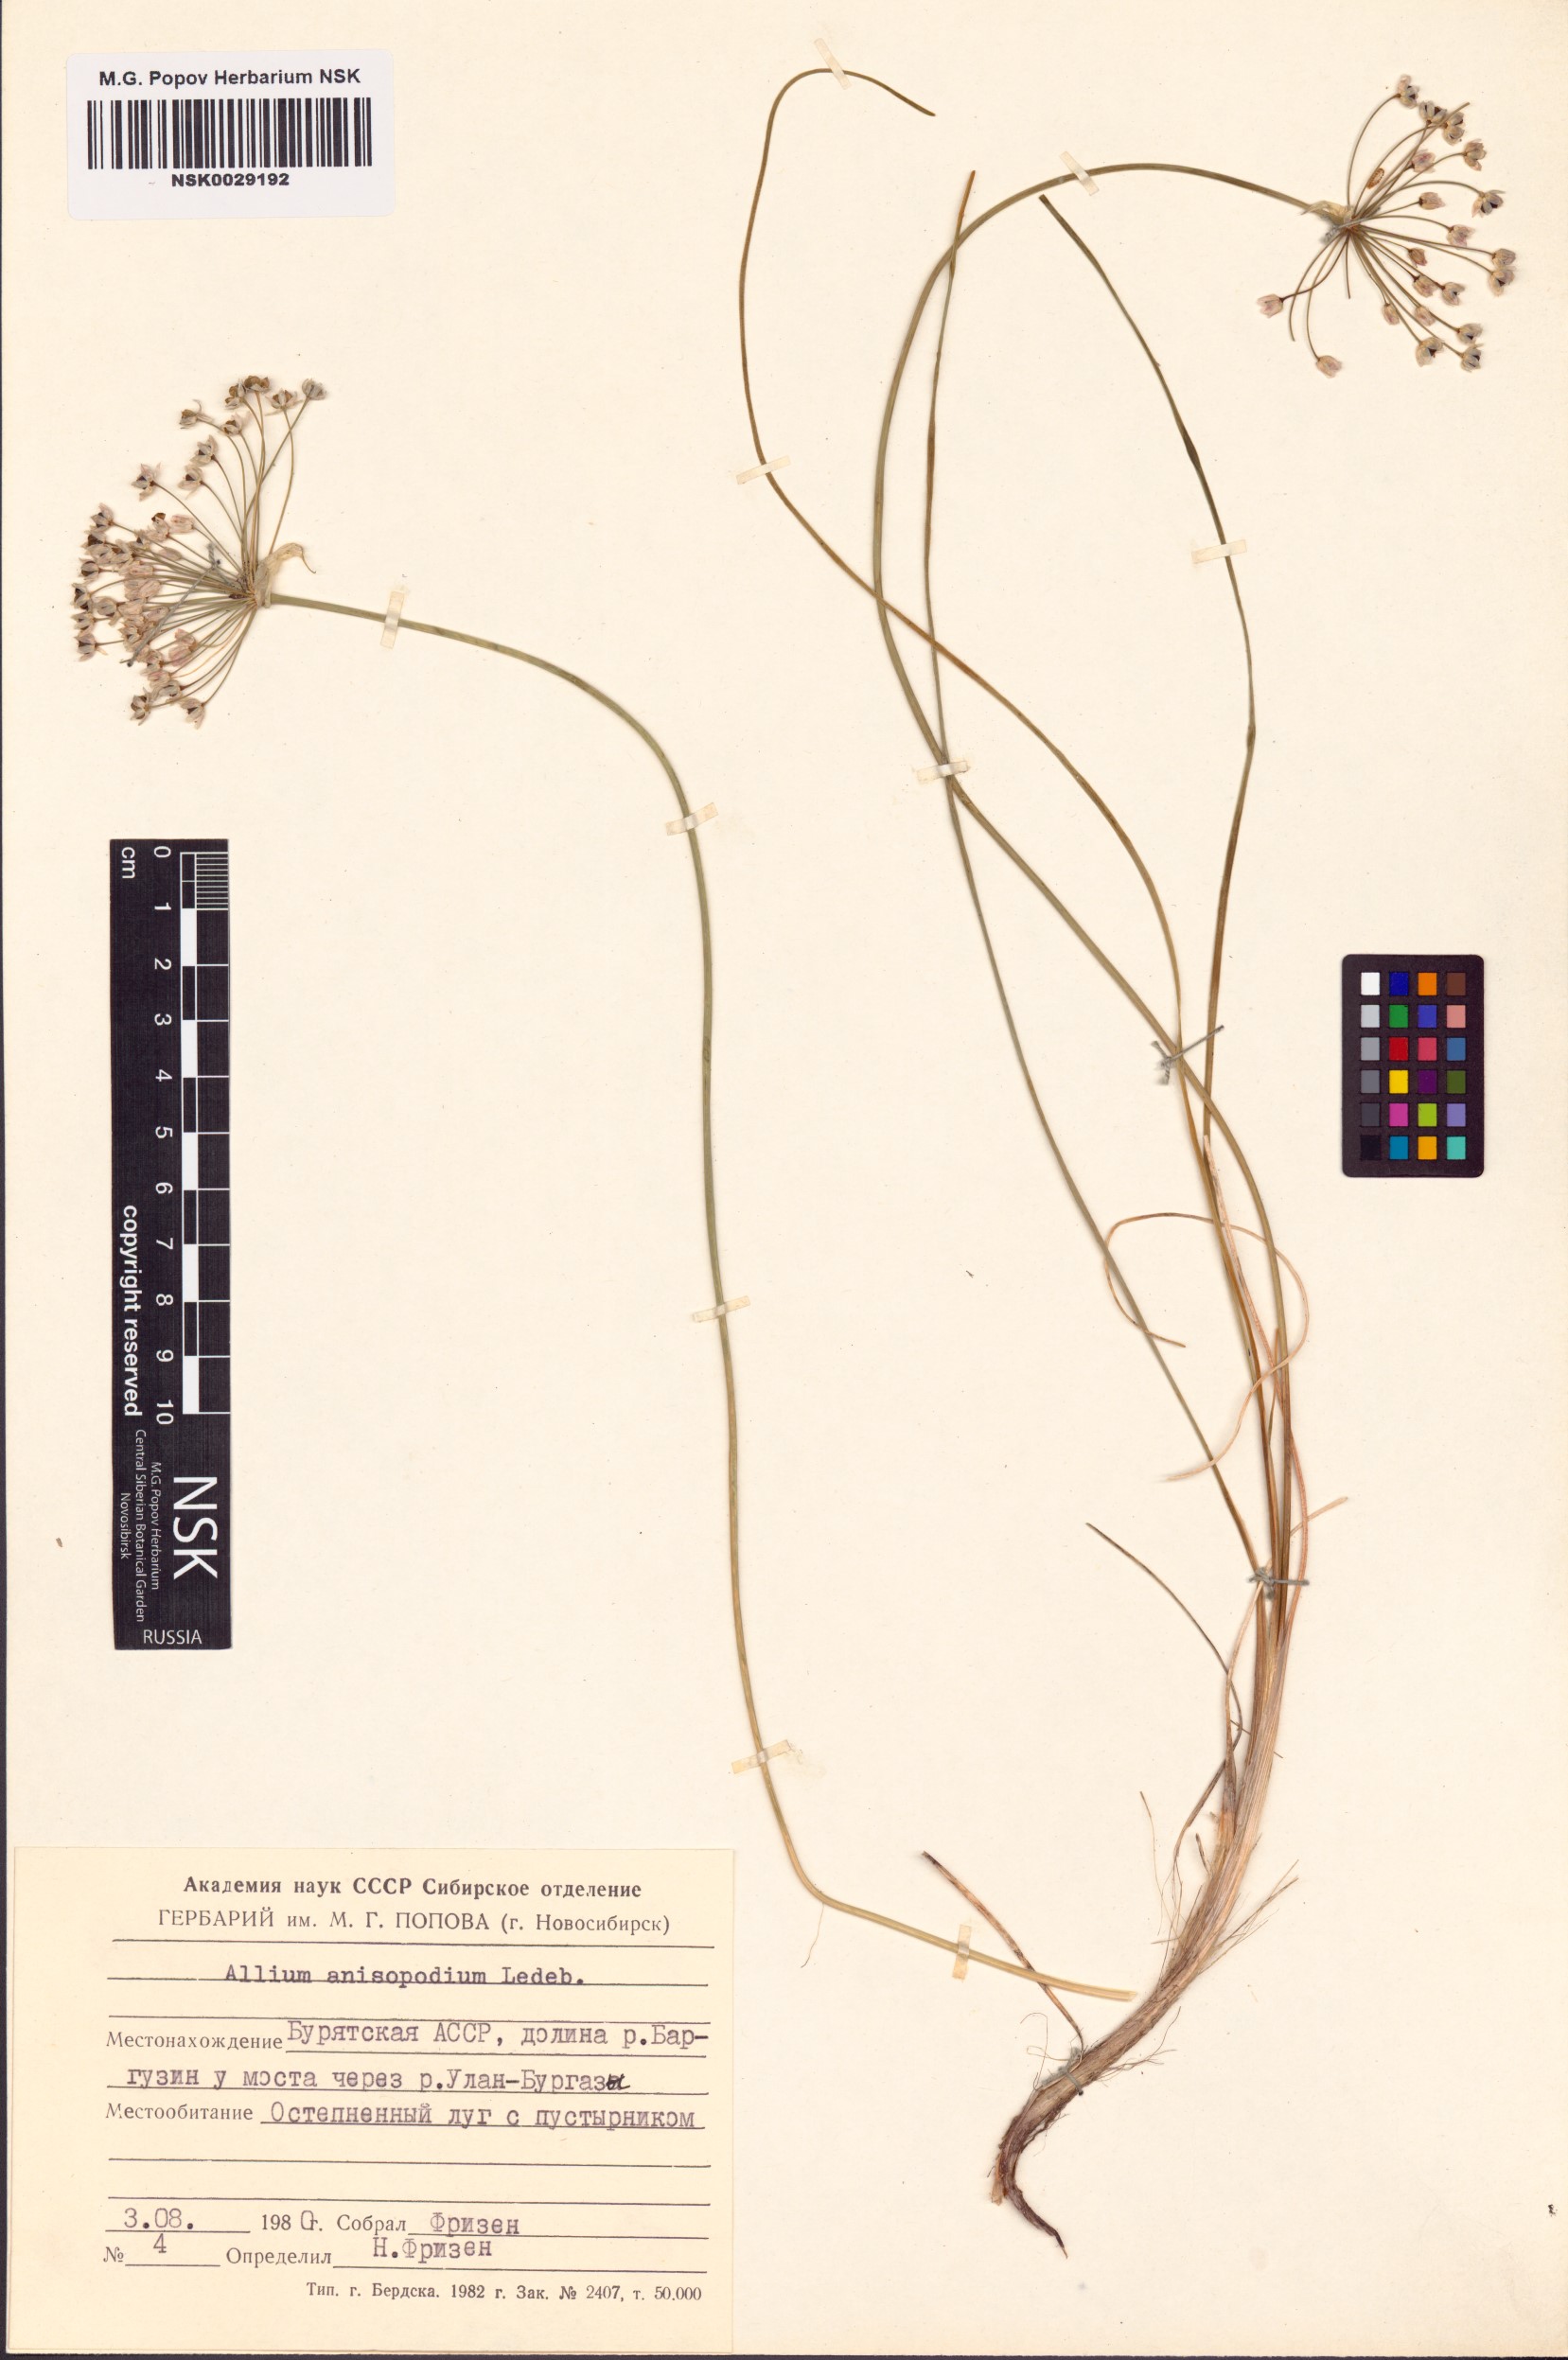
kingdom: Plantae
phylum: Tracheophyta
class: Liliopsida
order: Asparagales
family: Amaryllidaceae
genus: Allium
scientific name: Allium anisopodium
